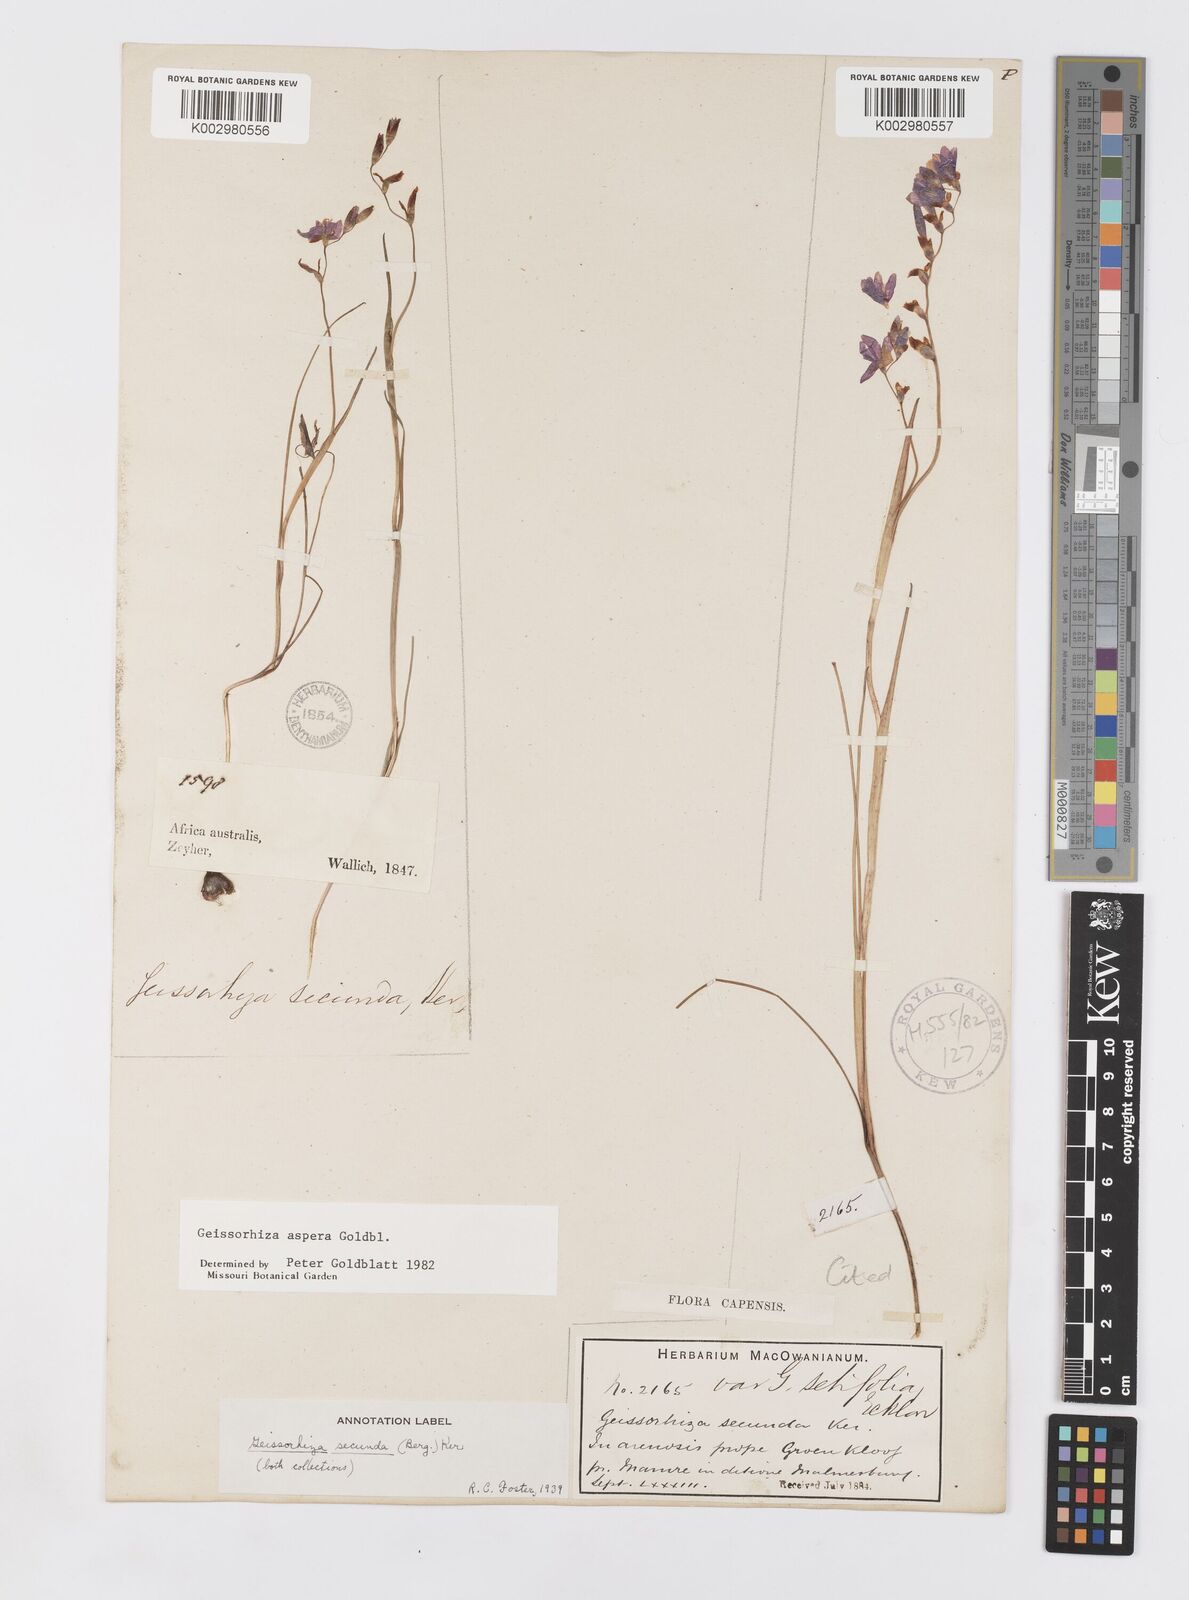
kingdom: Plantae
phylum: Tracheophyta
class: Liliopsida
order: Asparagales
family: Iridaceae
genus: Geissorhiza
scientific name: Geissorhiza aspera
